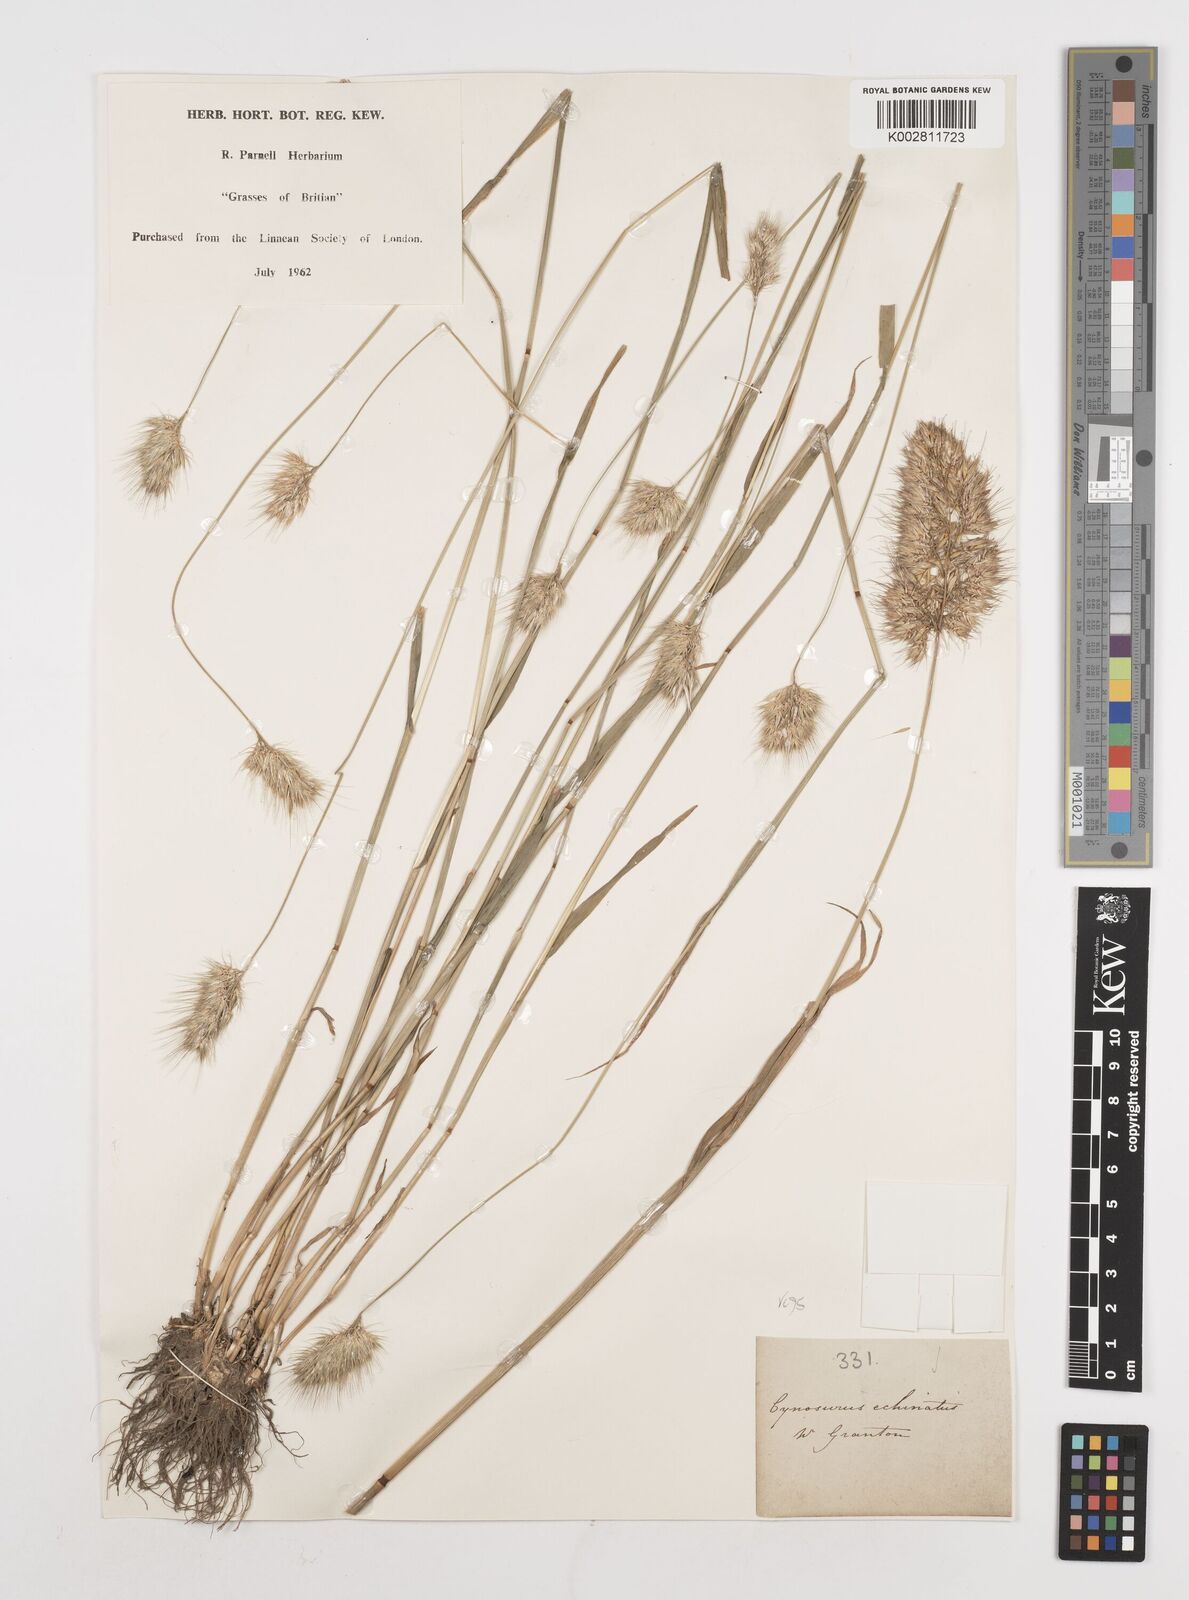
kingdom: Plantae
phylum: Tracheophyta
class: Liliopsida
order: Poales
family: Poaceae
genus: Cynosurus
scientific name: Cynosurus echinatus
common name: Rough dog's-tail
